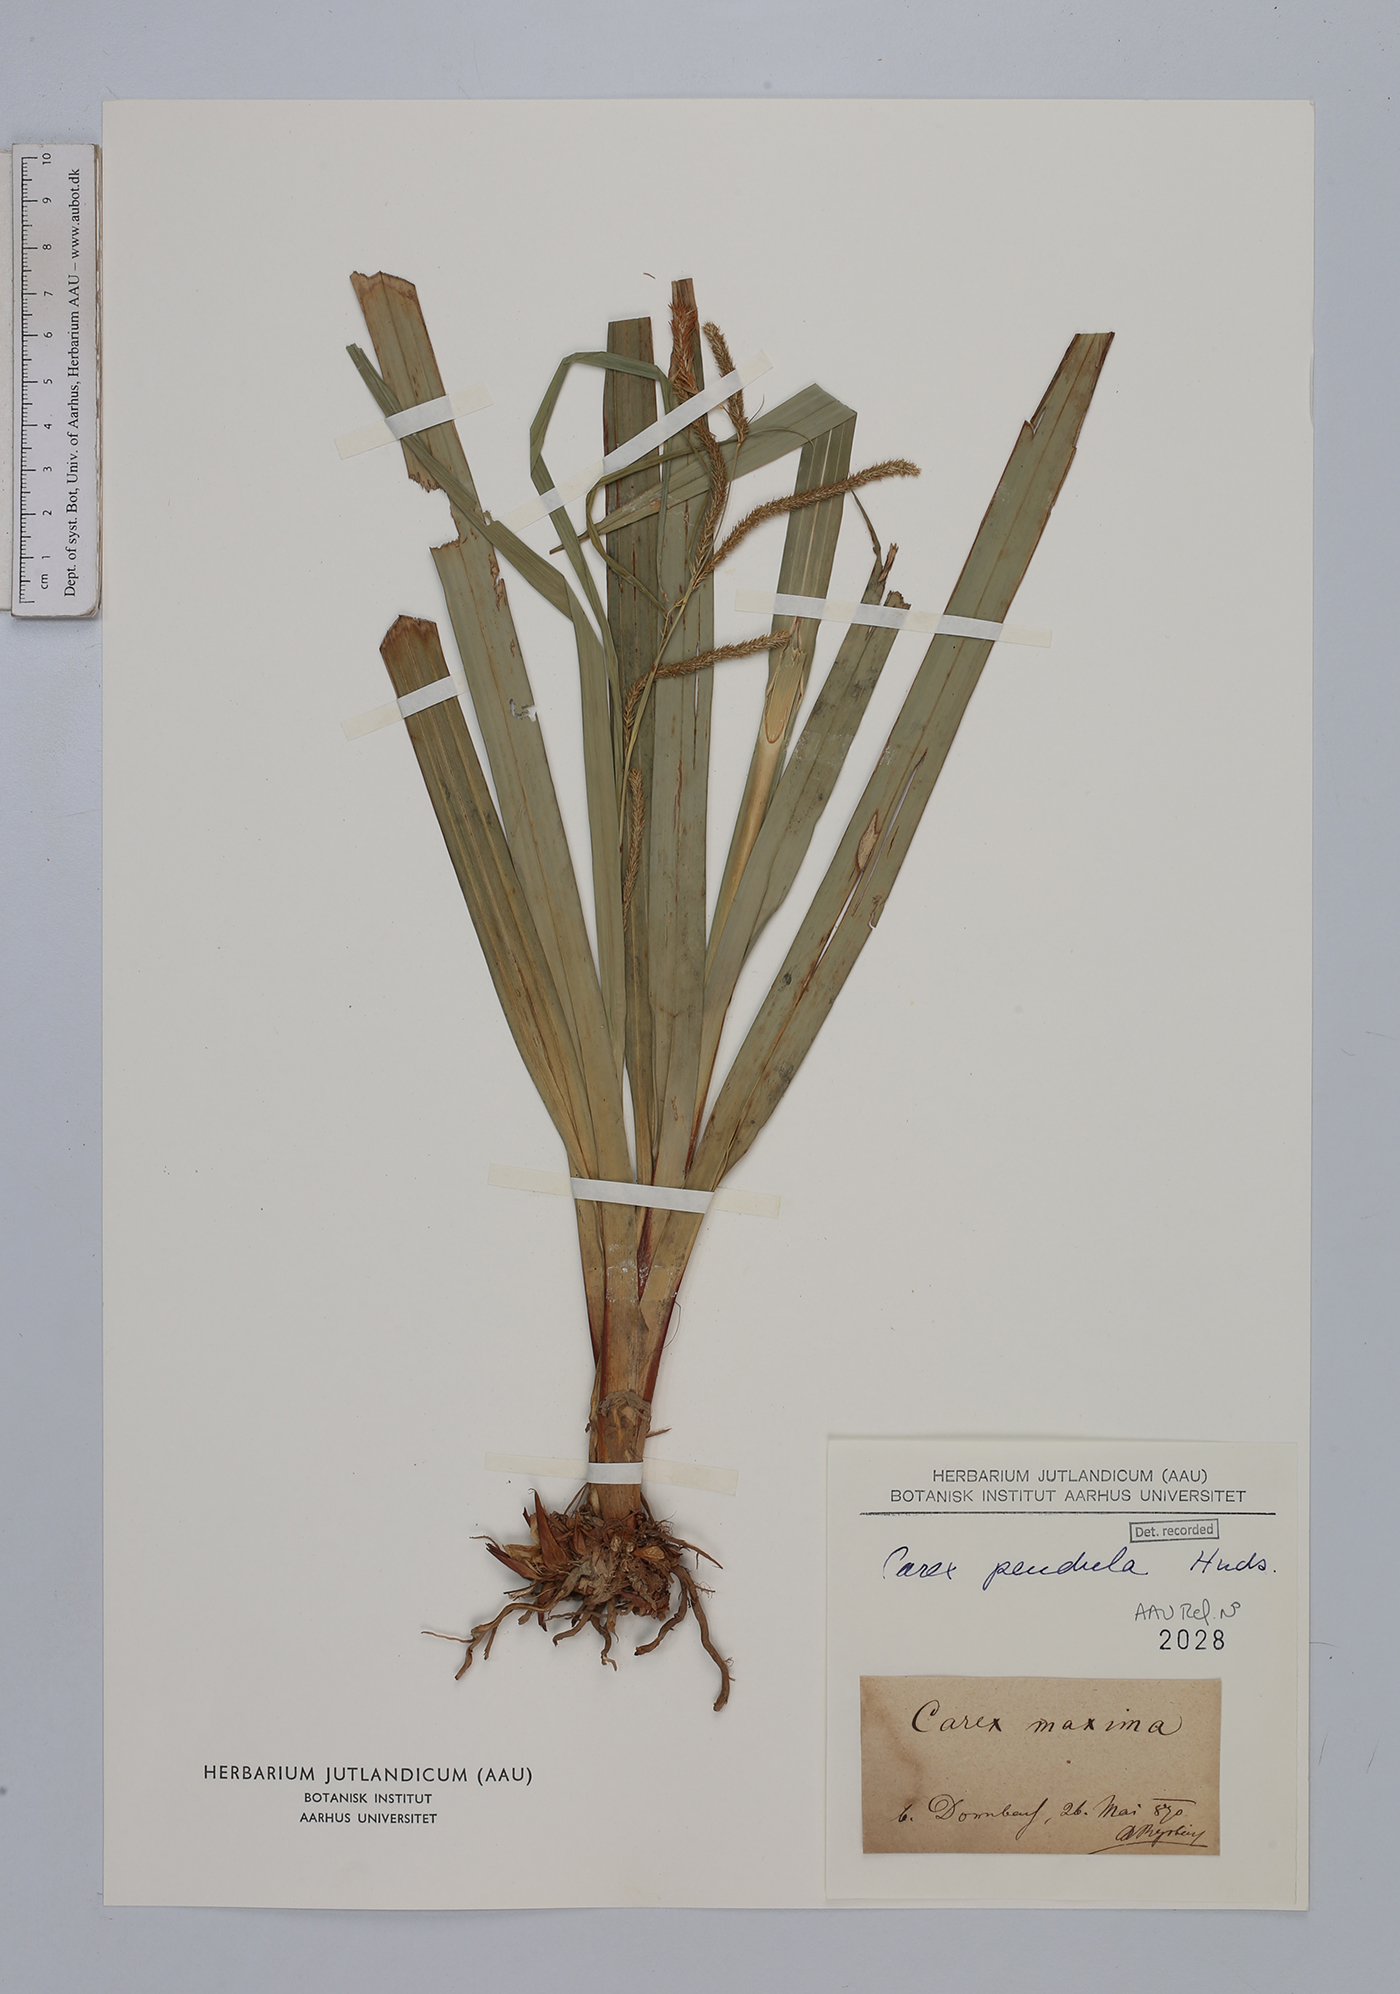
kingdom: Plantae
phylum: Tracheophyta
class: Liliopsida
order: Poales
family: Cyperaceae
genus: Carex
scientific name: Carex pendula
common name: Pendulous sedge
